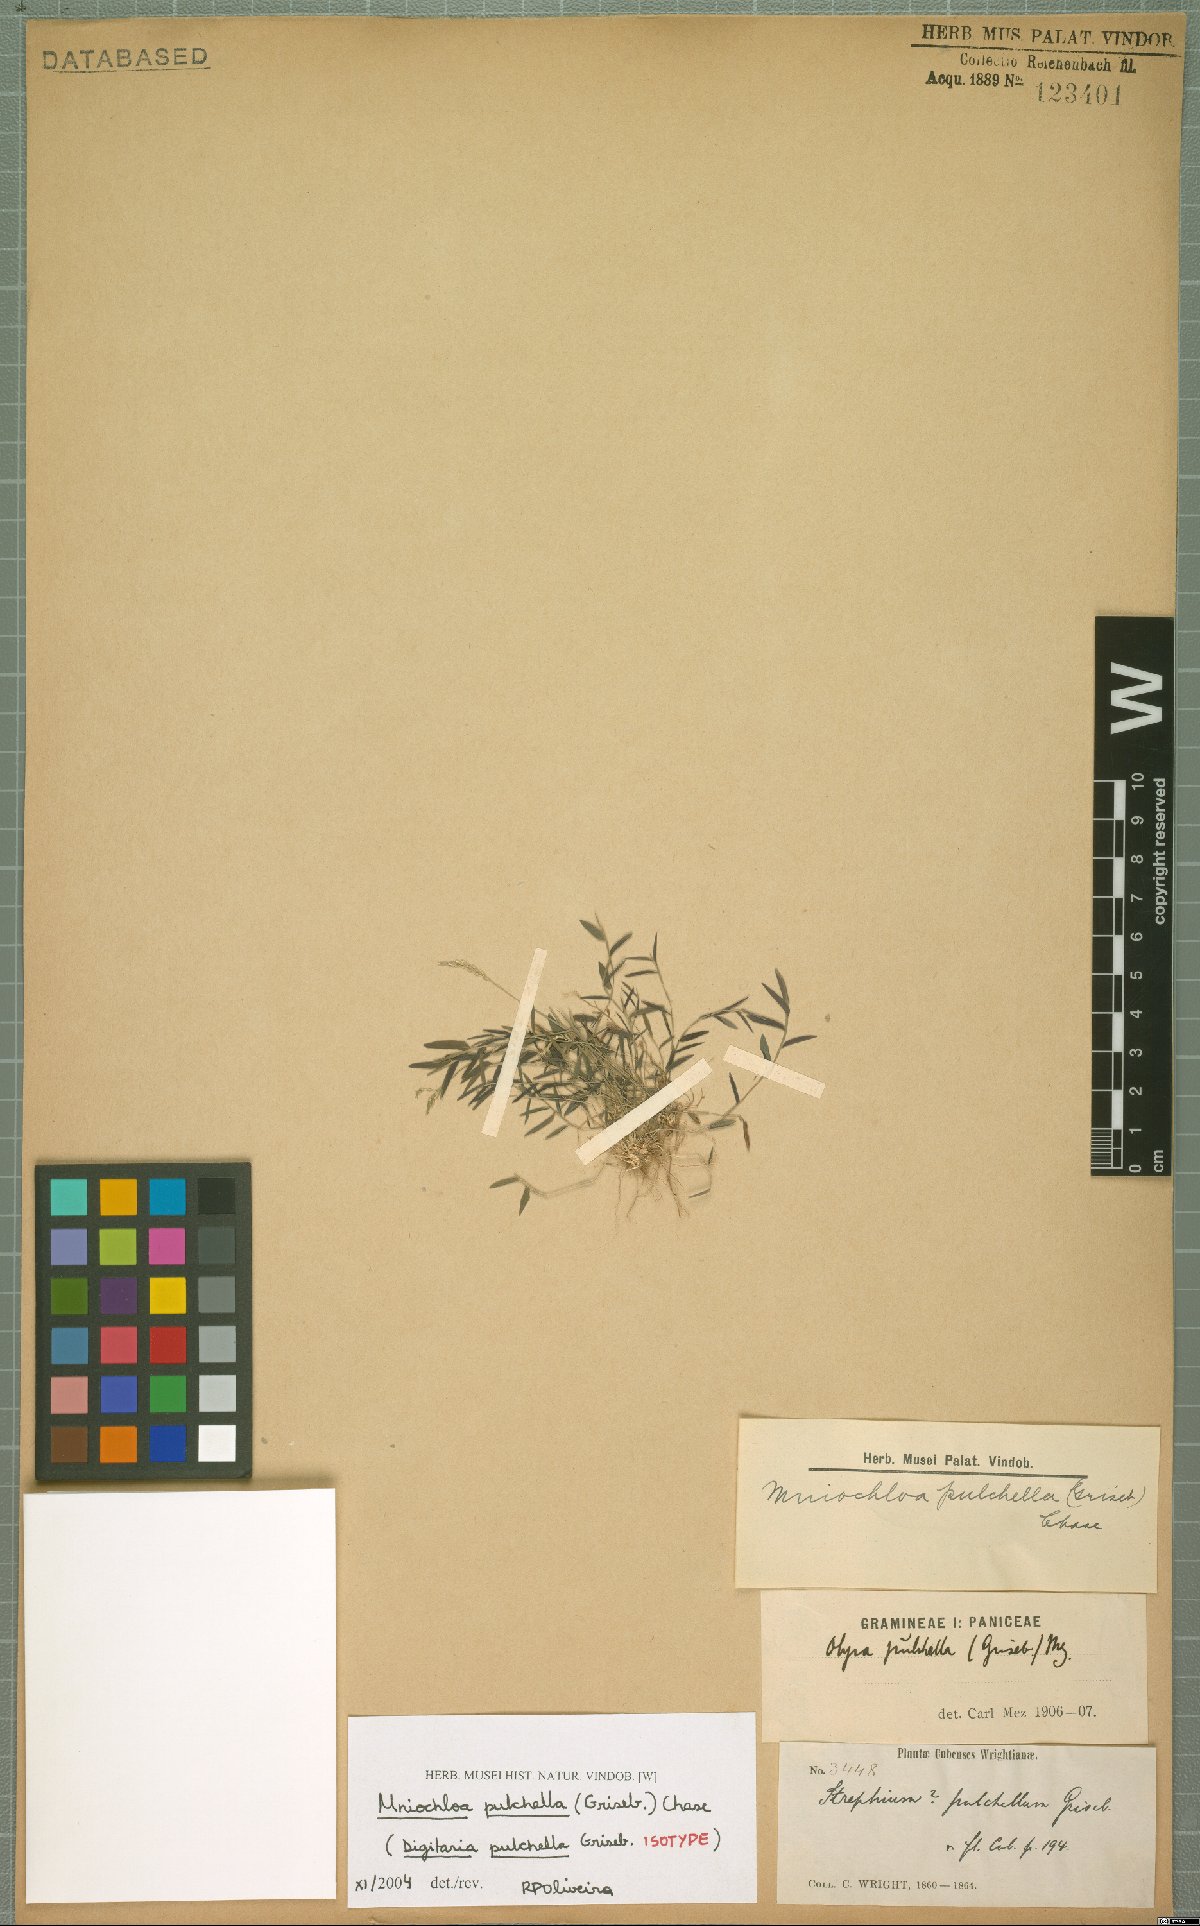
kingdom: Plantae
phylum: Tracheophyta
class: Liliopsida
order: Poales
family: Poaceae
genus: Mniochloa
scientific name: Mniochloa pulchella
